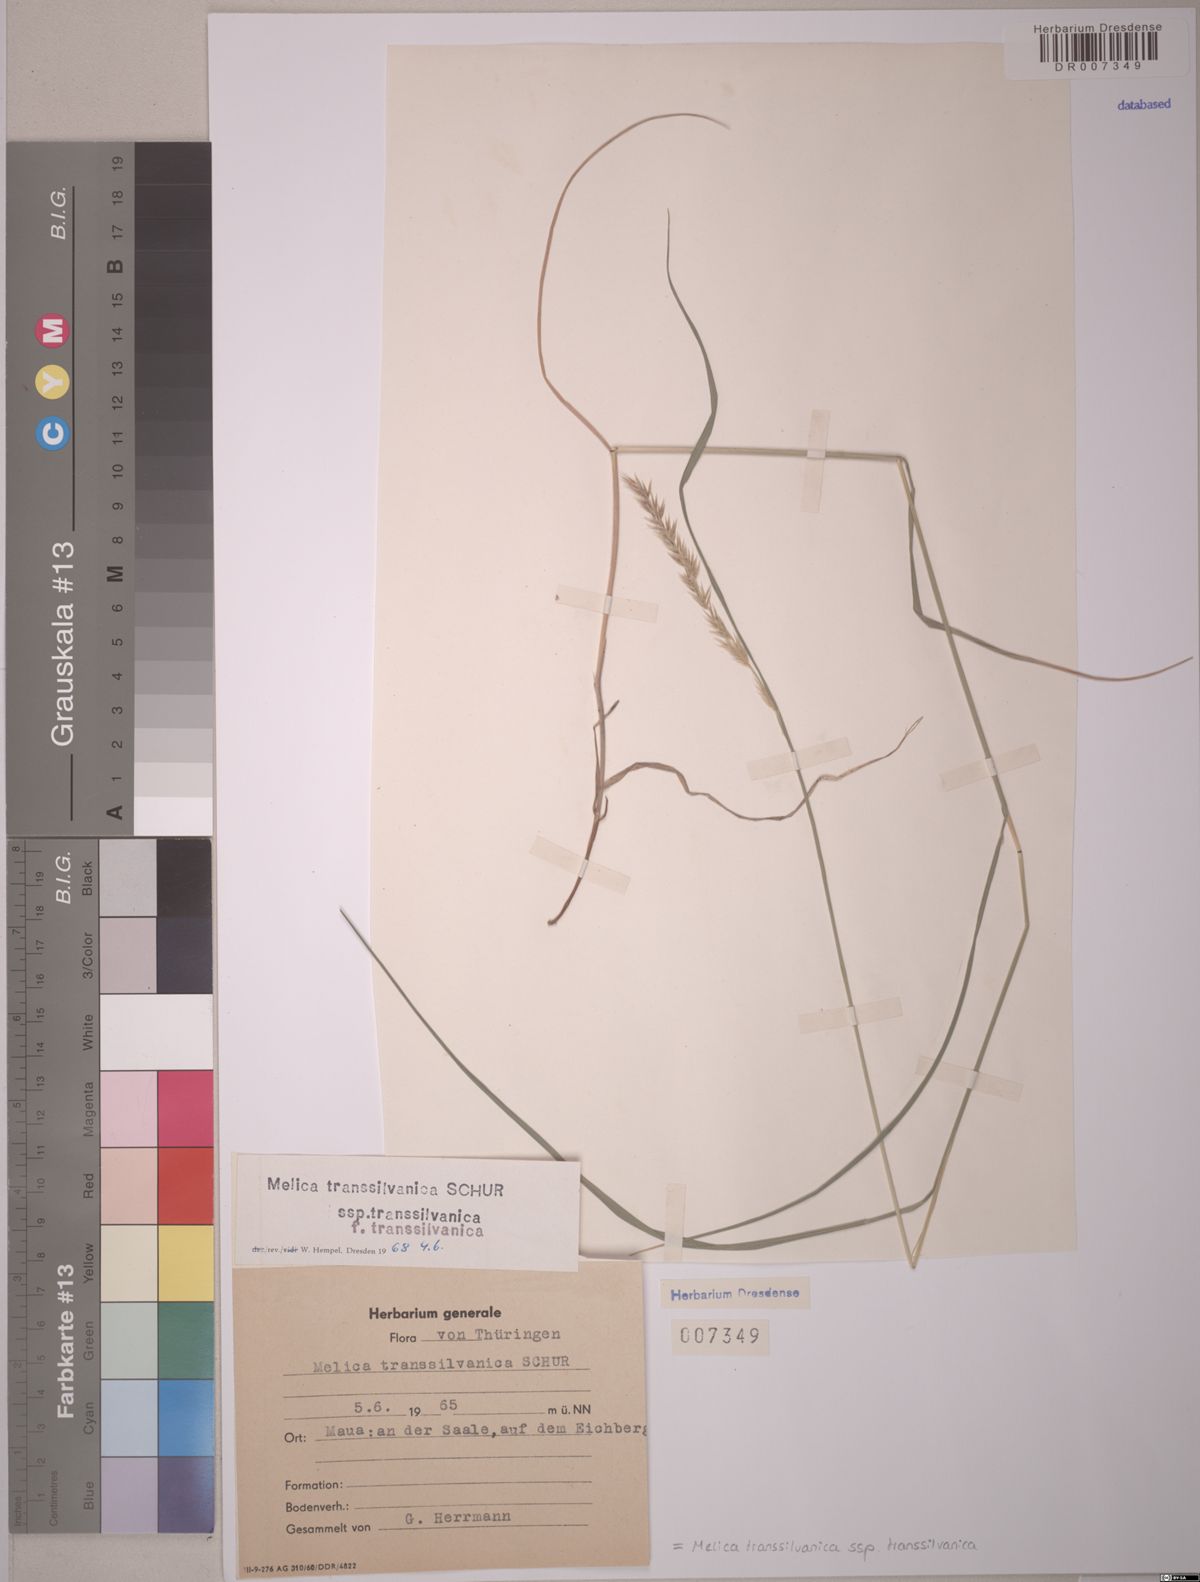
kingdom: Plantae
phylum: Tracheophyta
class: Liliopsida
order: Poales
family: Poaceae
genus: Melica
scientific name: Melica transsilvanica
